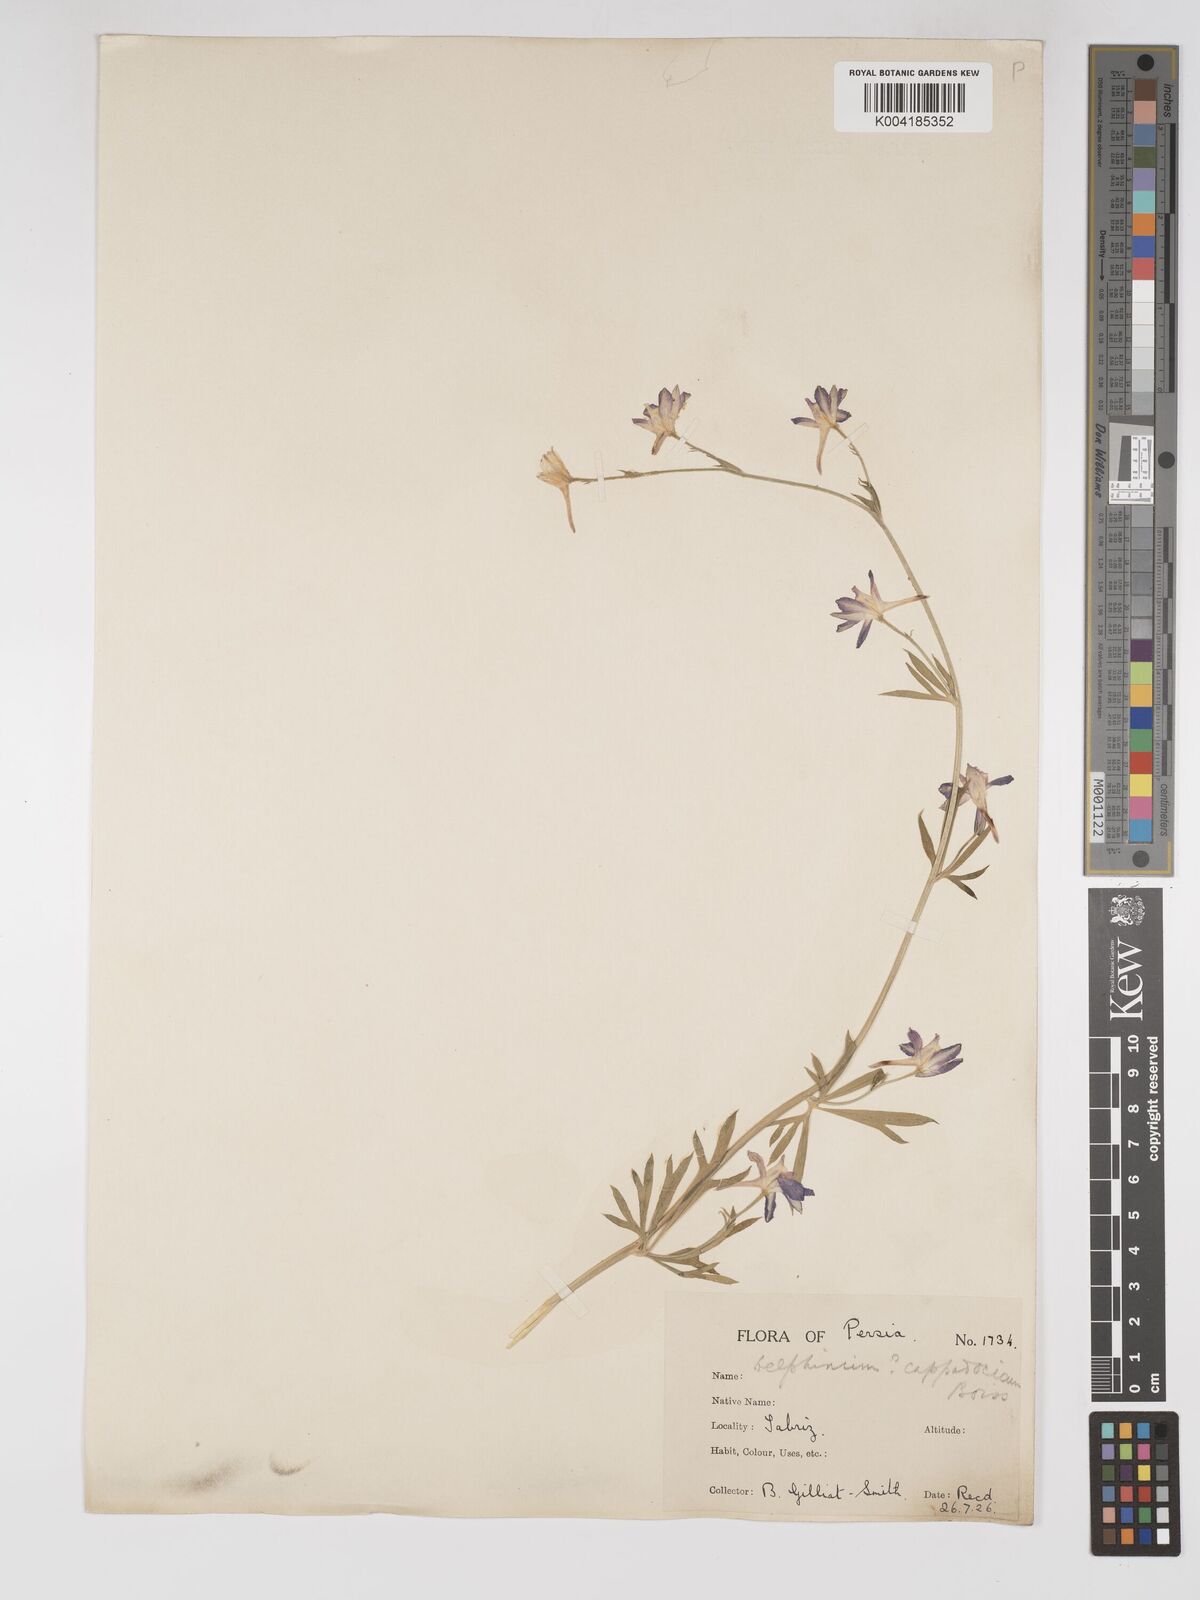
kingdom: Plantae
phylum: Tracheophyta
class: Magnoliopsida
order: Ranunculales
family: Ranunculaceae
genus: Delphinium
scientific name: Delphinium oliverianum
